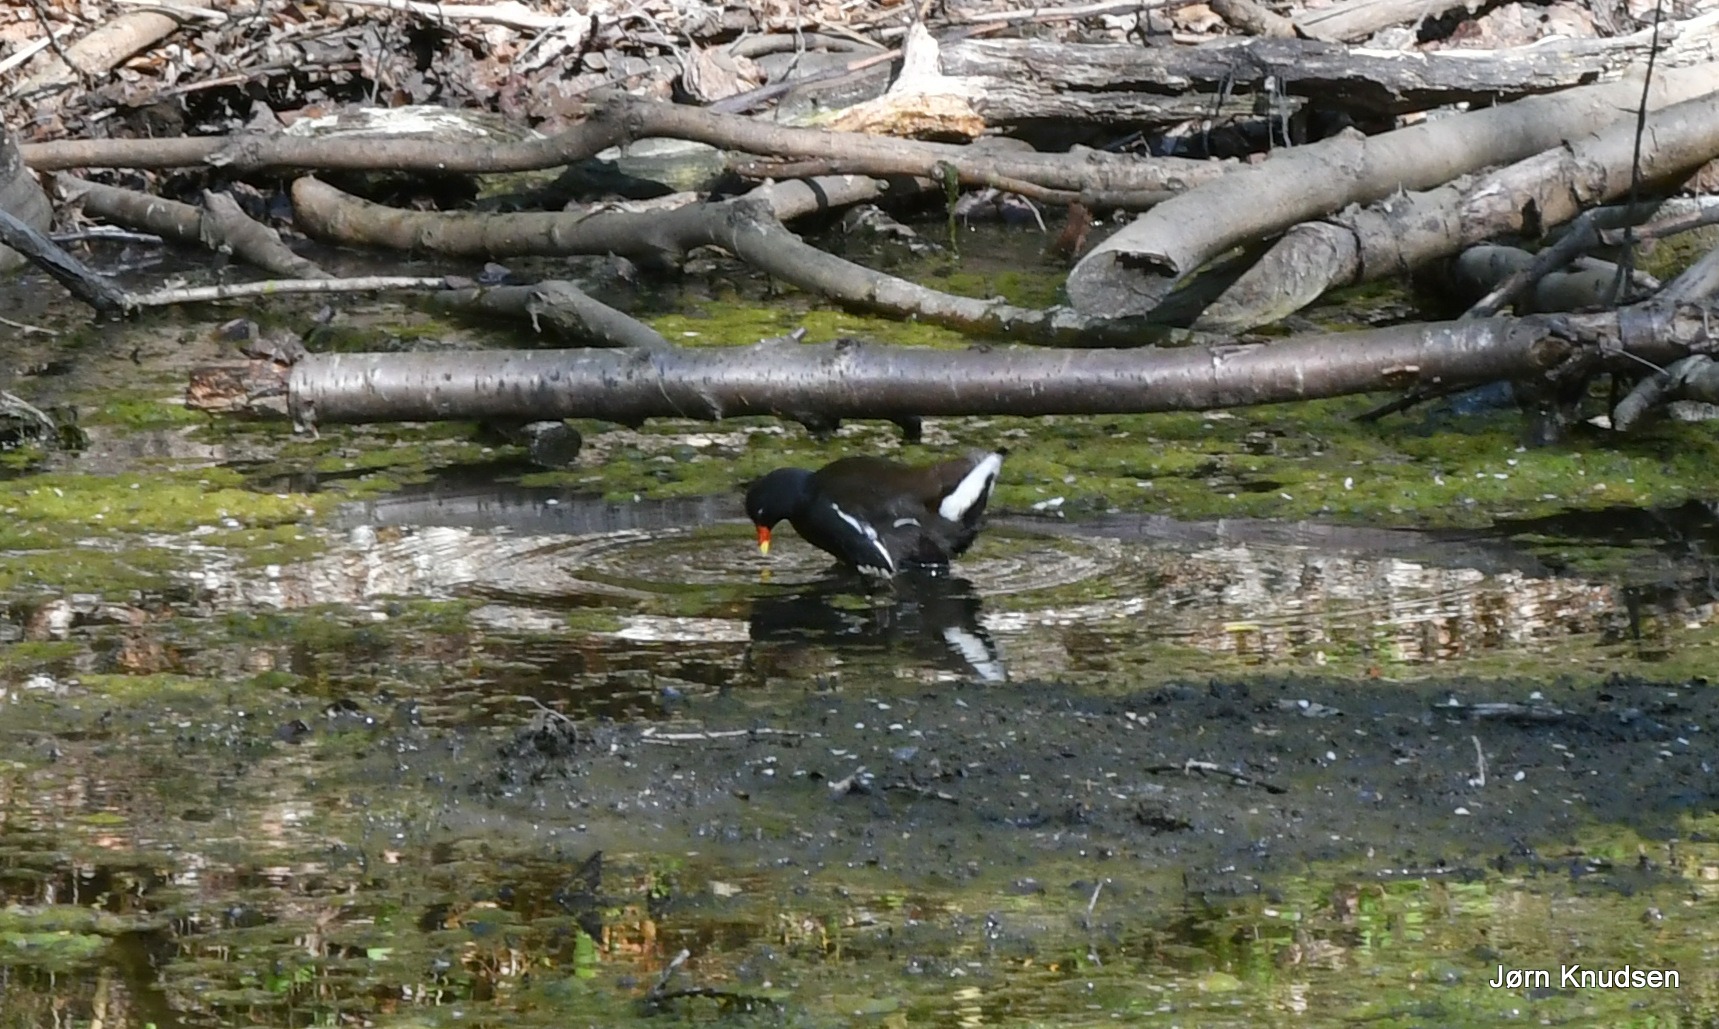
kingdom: Animalia
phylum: Chordata
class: Aves
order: Gruiformes
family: Rallidae
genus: Gallinula
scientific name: Gallinula chloropus
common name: Grønbenet rørhøne
